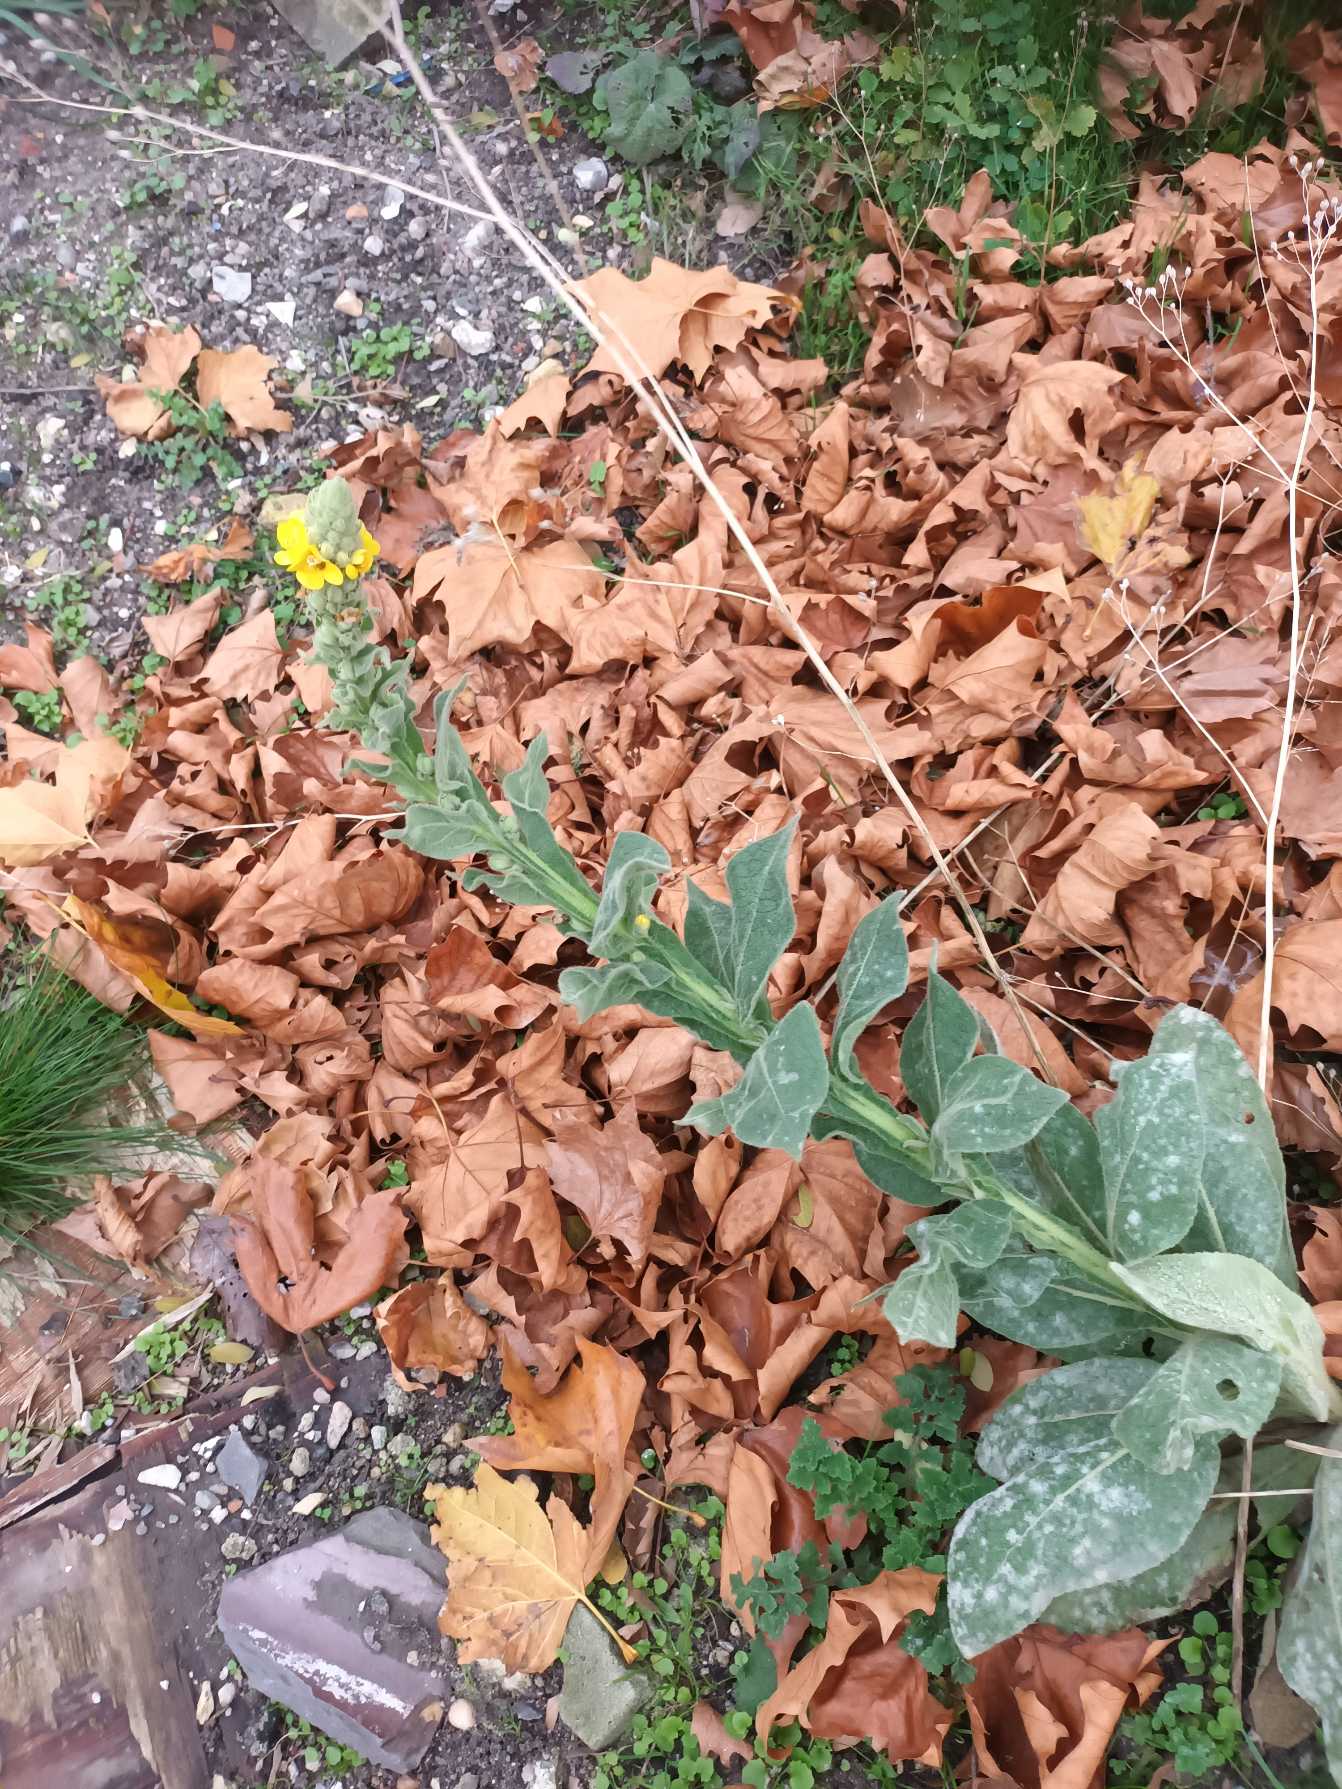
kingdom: Plantae
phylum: Tracheophyta
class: Magnoliopsida
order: Lamiales
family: Scrophulariaceae
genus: Verbascum
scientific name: Verbascum densiflorum
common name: Uldbladet kongelys
